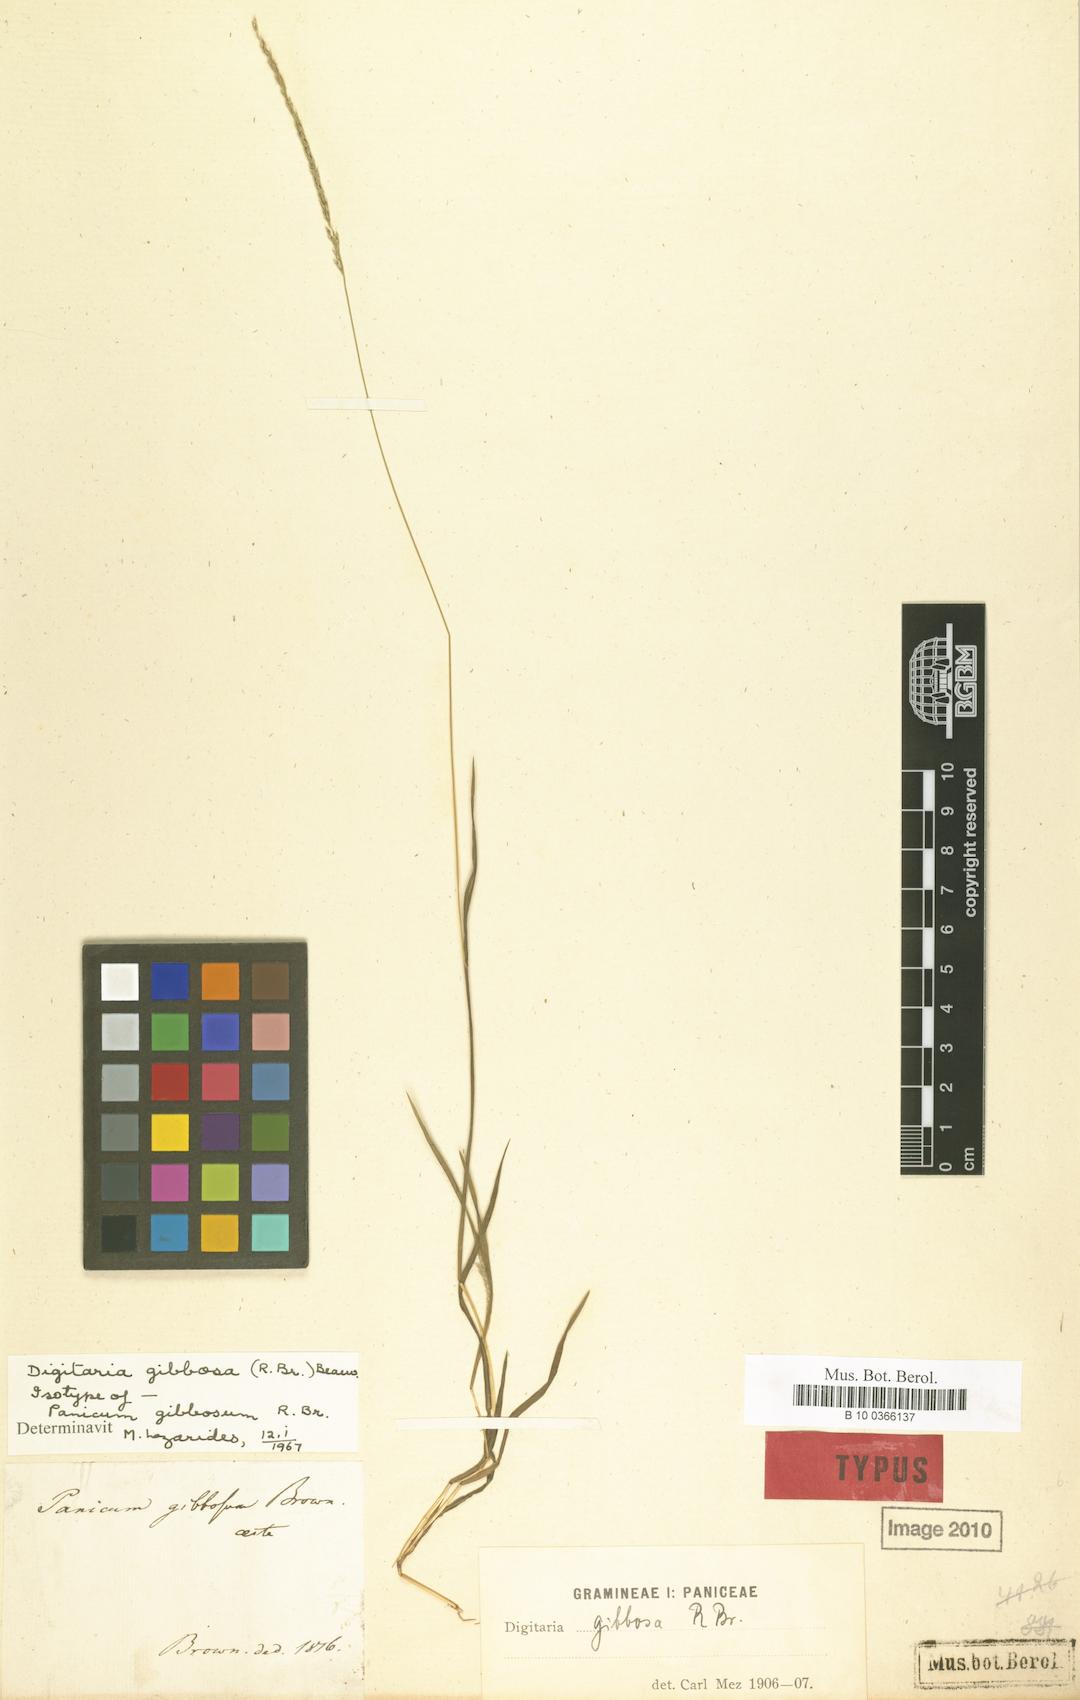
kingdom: Plantae
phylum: Tracheophyta
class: Liliopsida
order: Poales
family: Poaceae
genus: Digitaria
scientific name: Digitaria gibbosa
